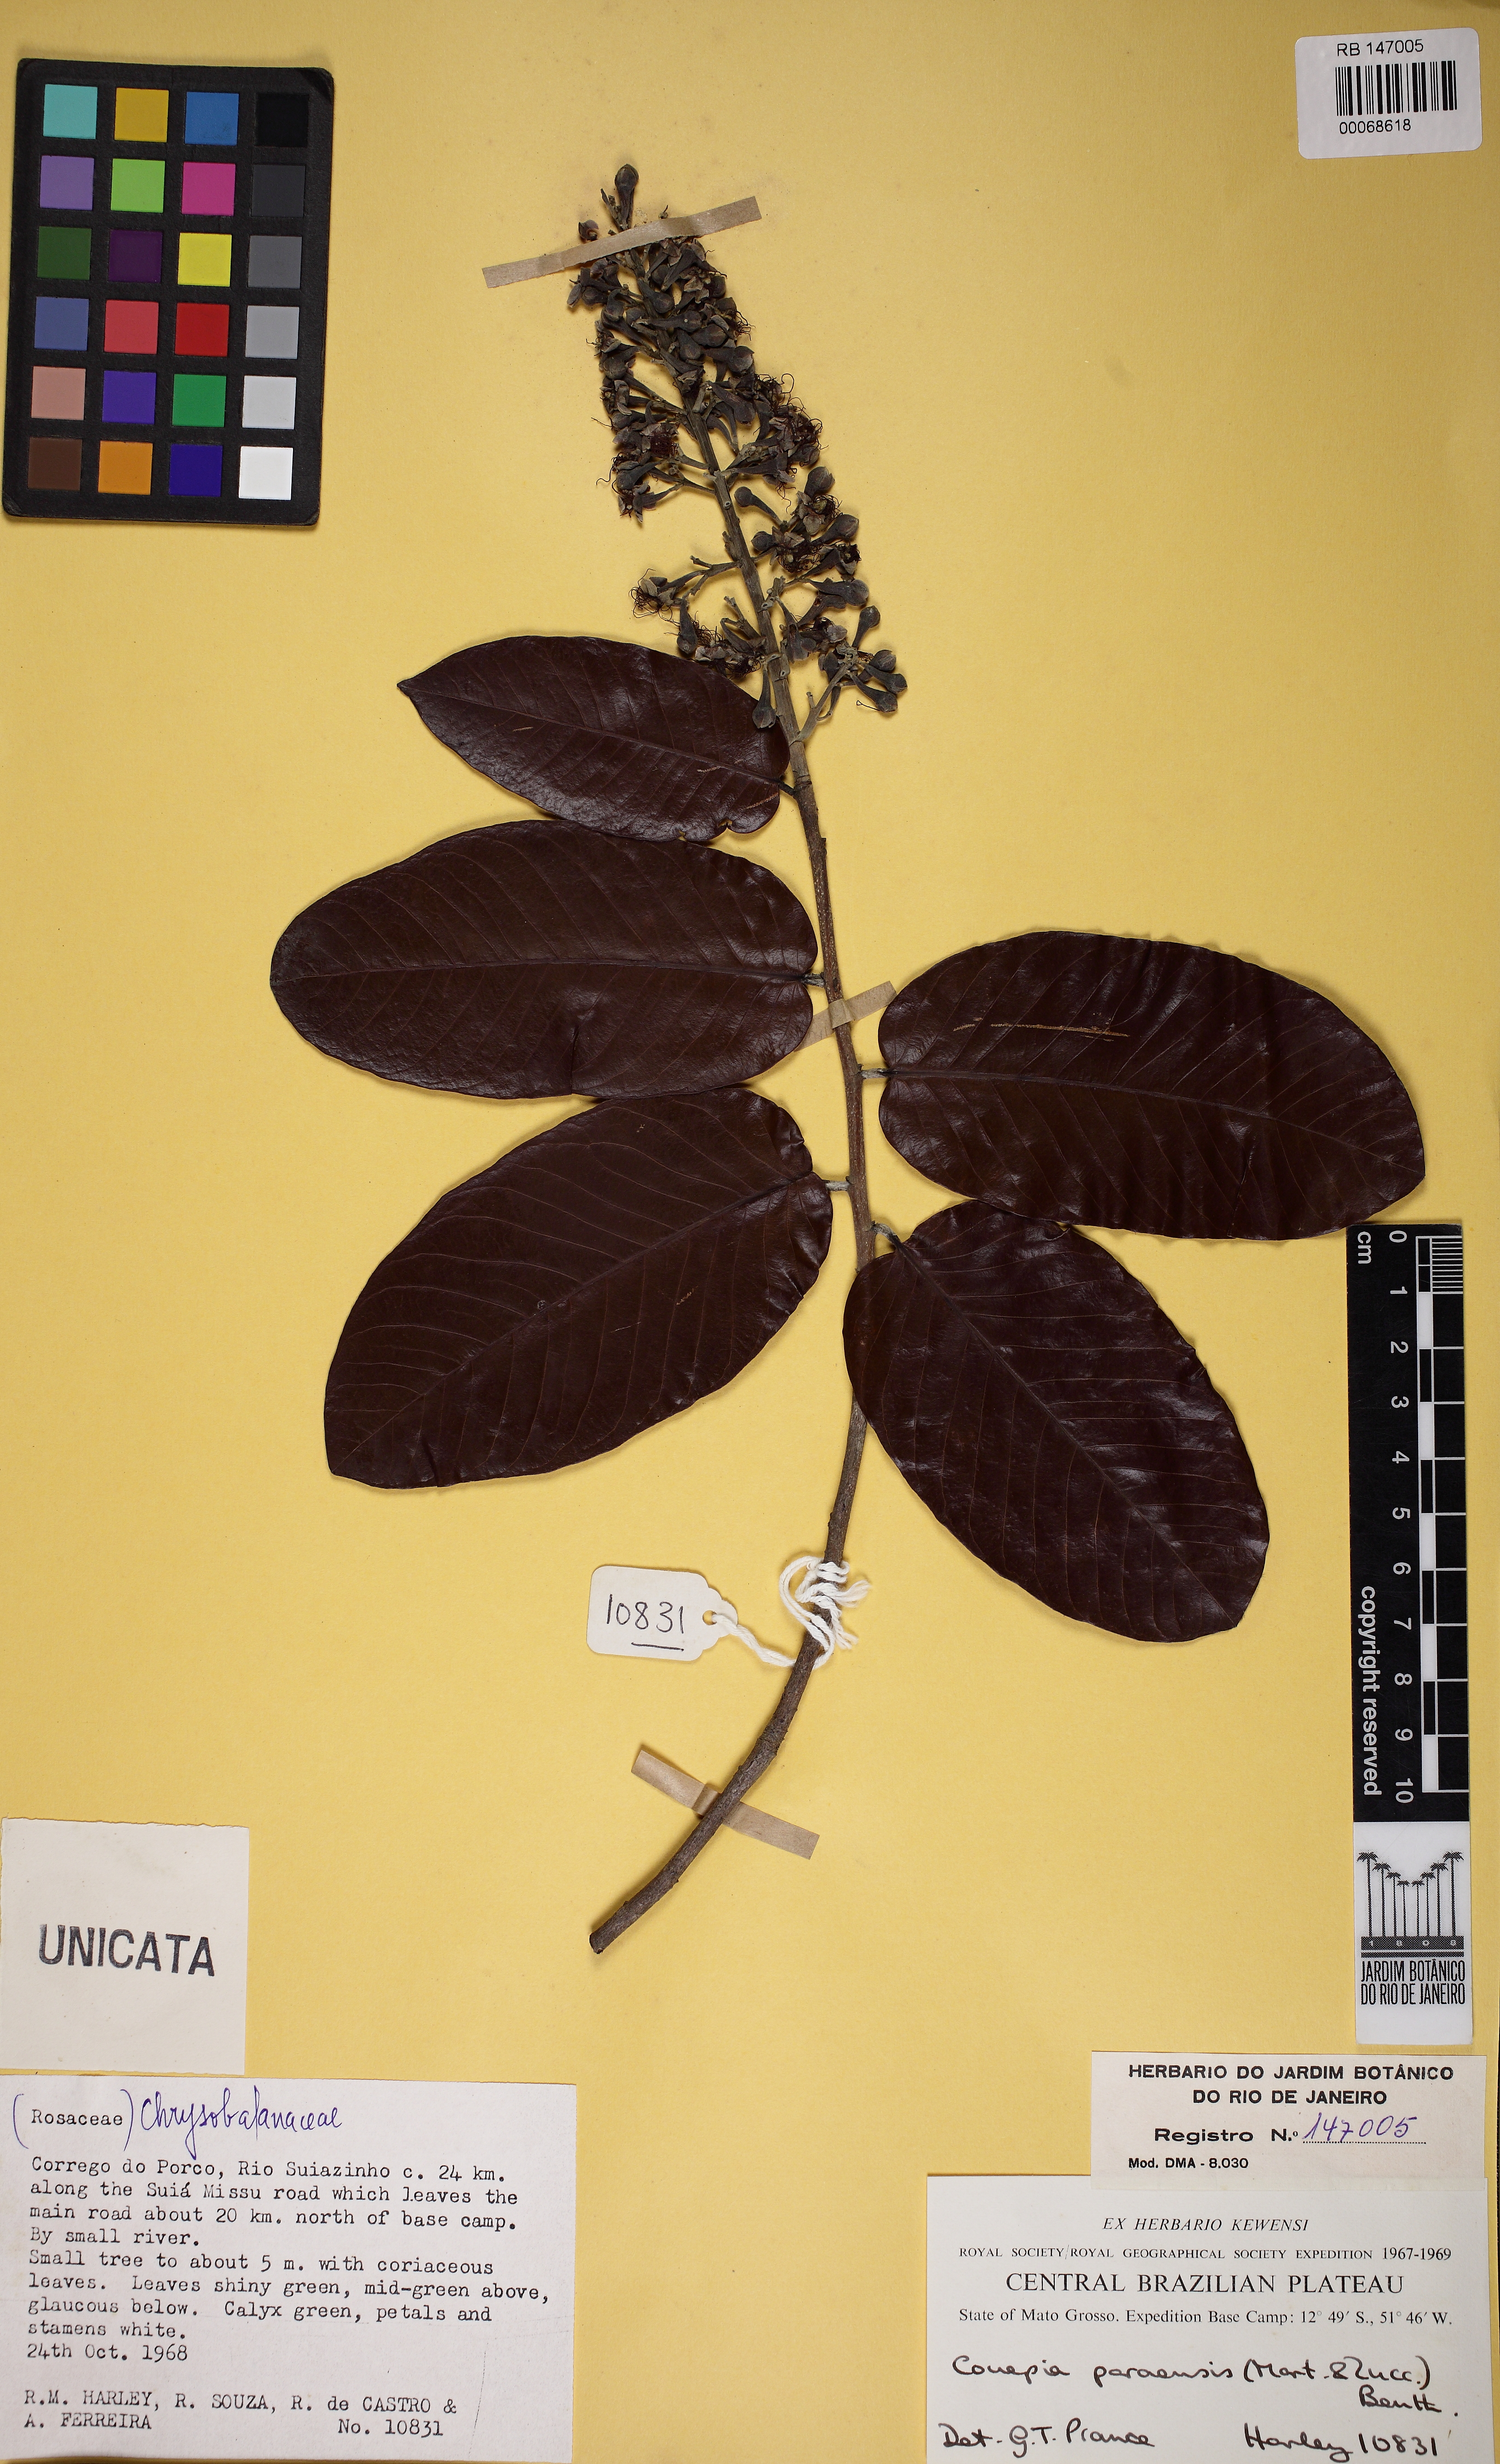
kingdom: Plantae
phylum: Tracheophyta
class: Magnoliopsida
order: Malpighiales
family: Chrysobalanaceae
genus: Couepia
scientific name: Couepia uiti
